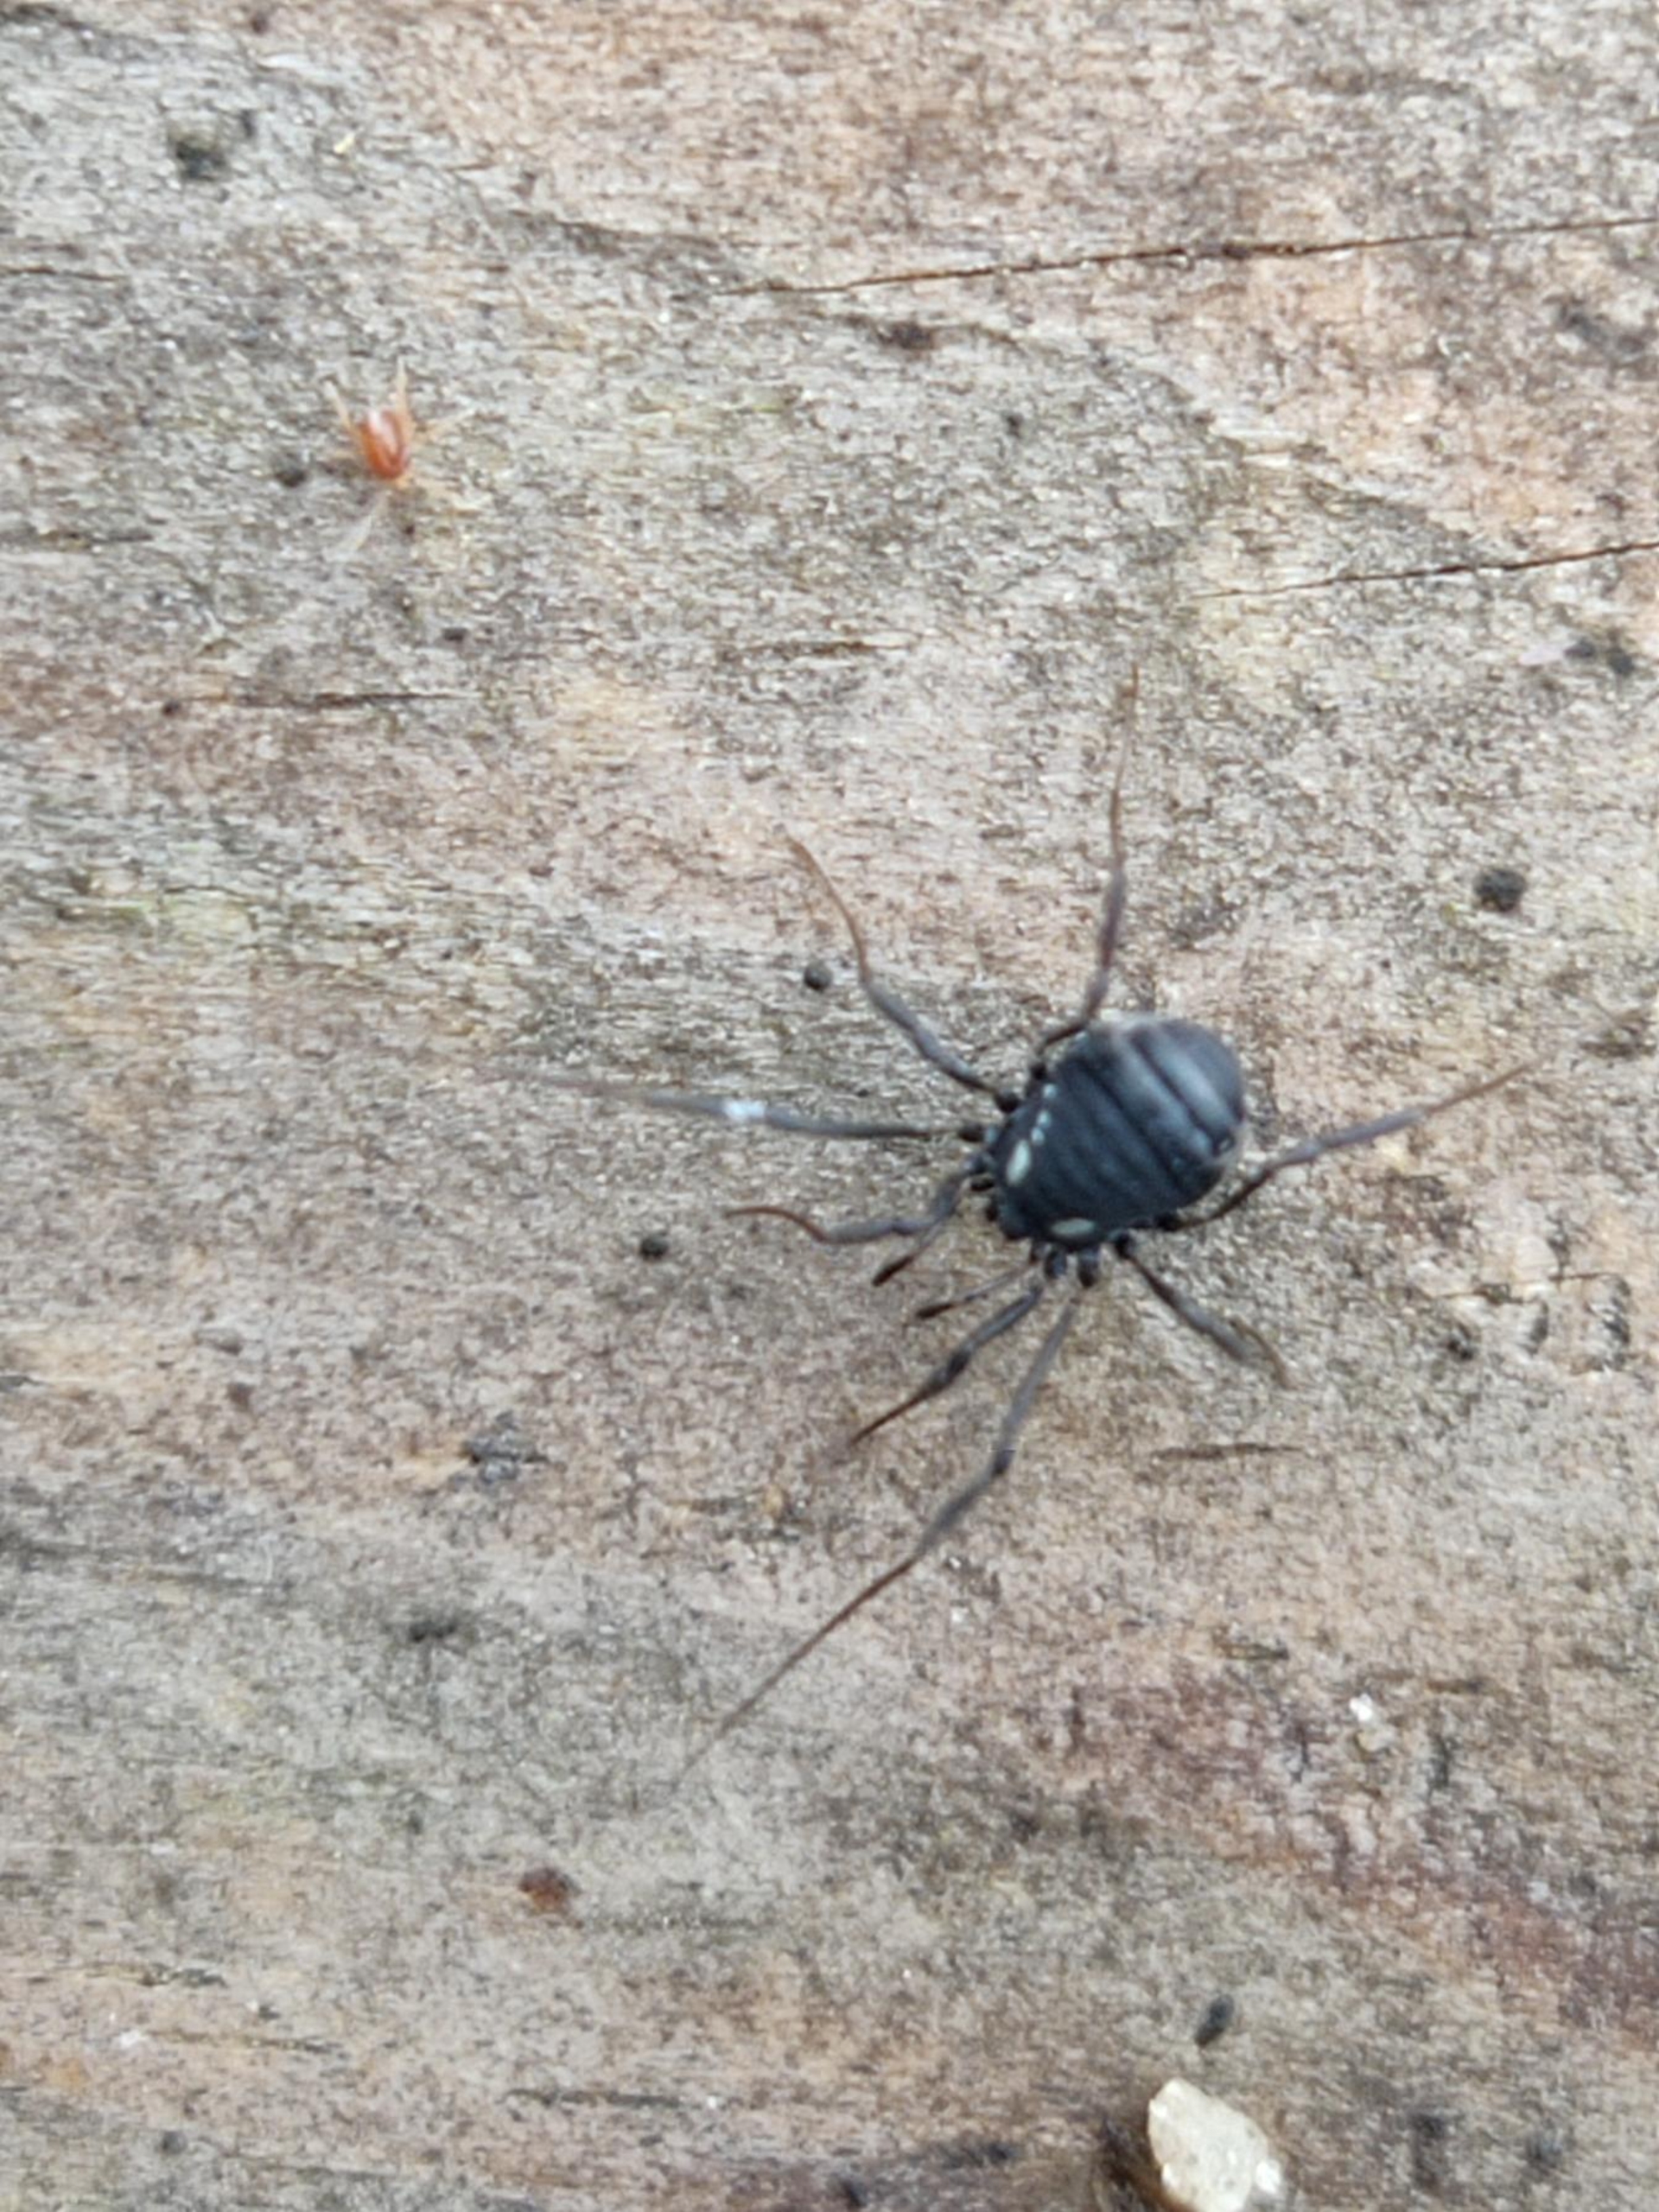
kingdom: Animalia
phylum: Arthropoda
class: Arachnida
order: Opiliones
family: Nemastomatidae
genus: Nemastoma
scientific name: Nemastoma lugubre
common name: Østlig dødningehovedmejer
